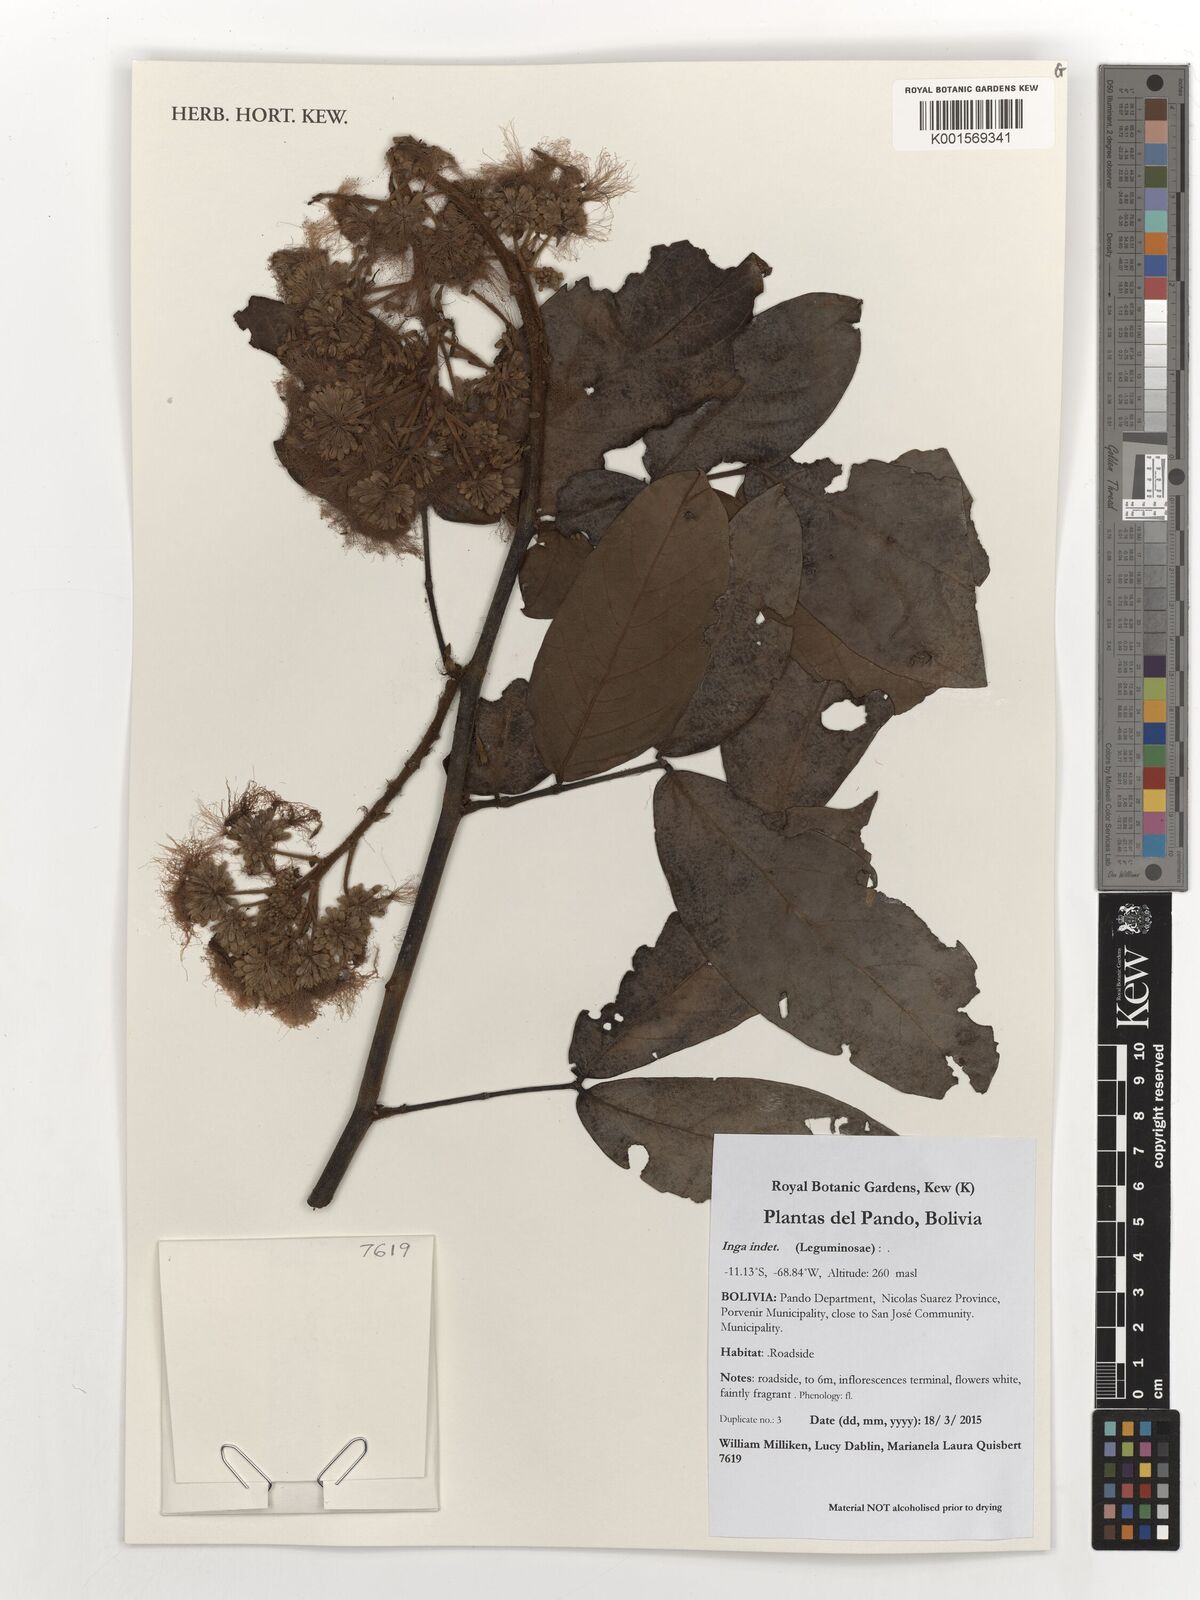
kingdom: Plantae
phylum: Tracheophyta
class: Magnoliopsida
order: Fabales
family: Fabaceae
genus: Inga
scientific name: Inga
